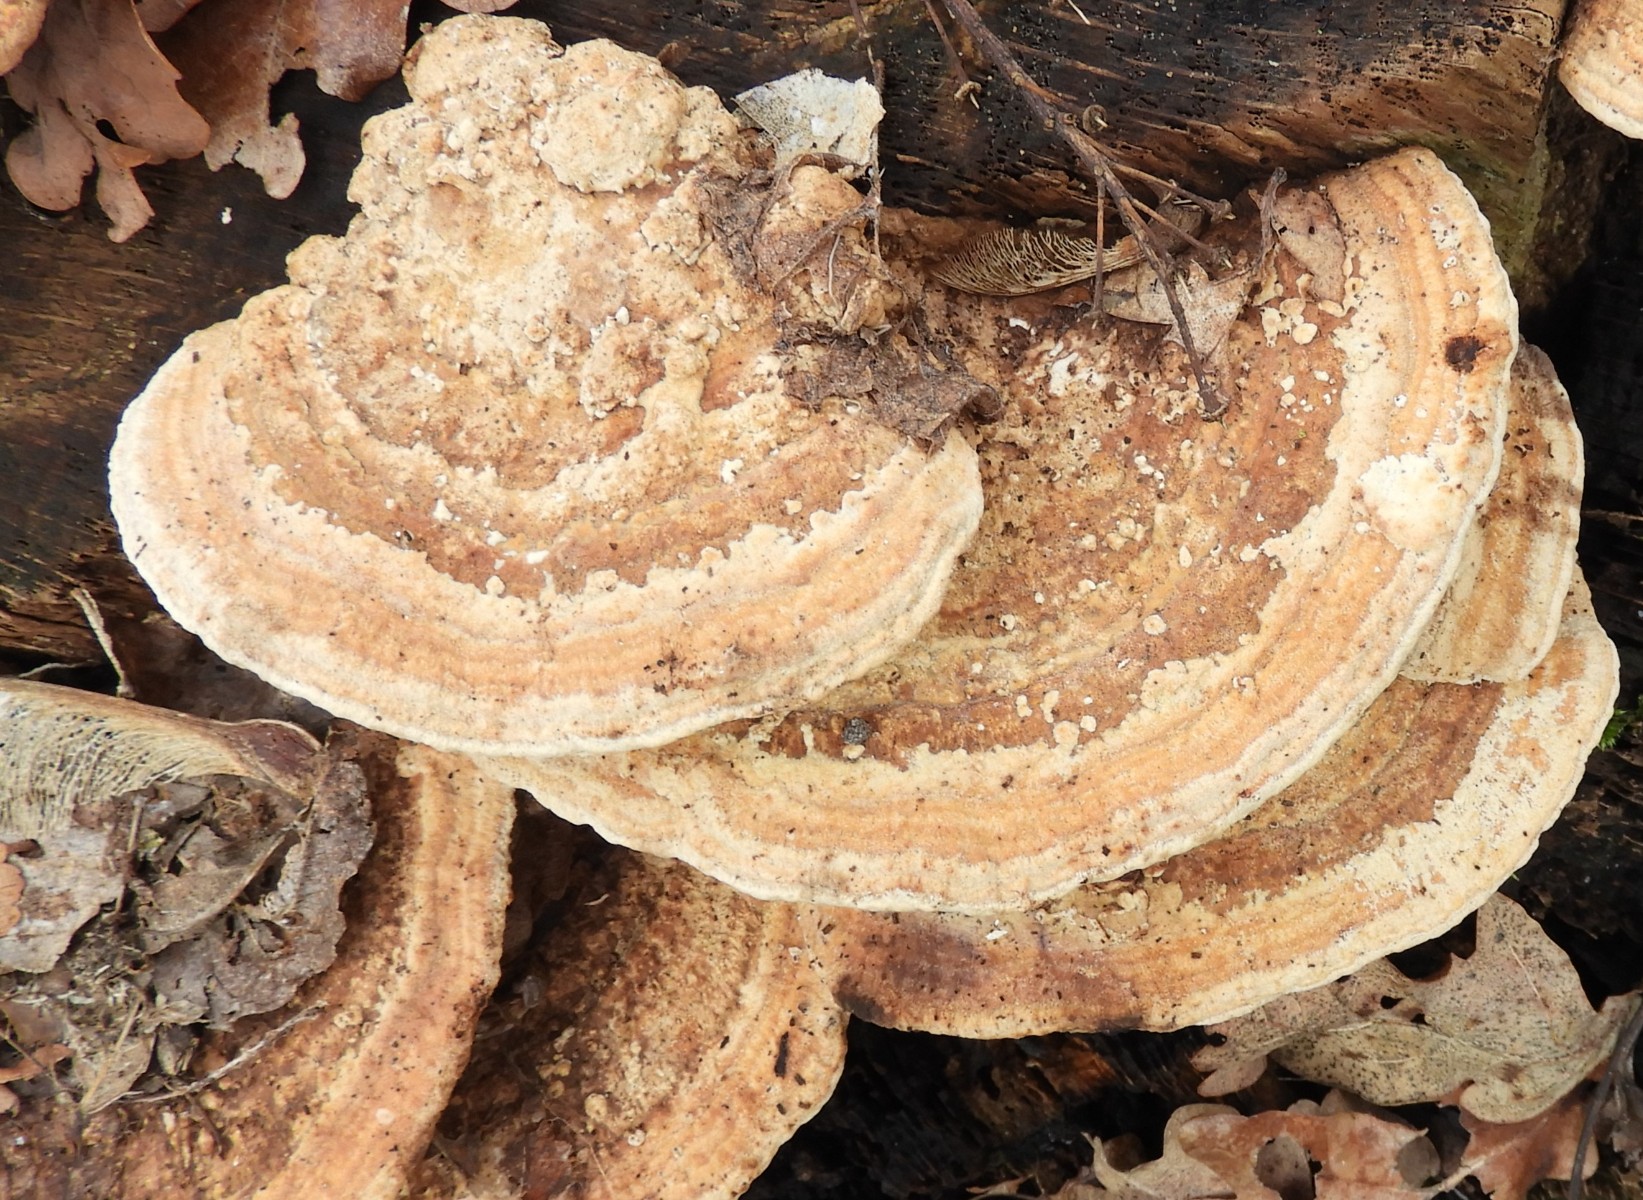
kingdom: Fungi
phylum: Basidiomycota
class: Agaricomycetes
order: Polyporales
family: Fomitopsidaceae
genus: Daedalea
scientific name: Daedalea quercina
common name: ege-labyrintsvamp
